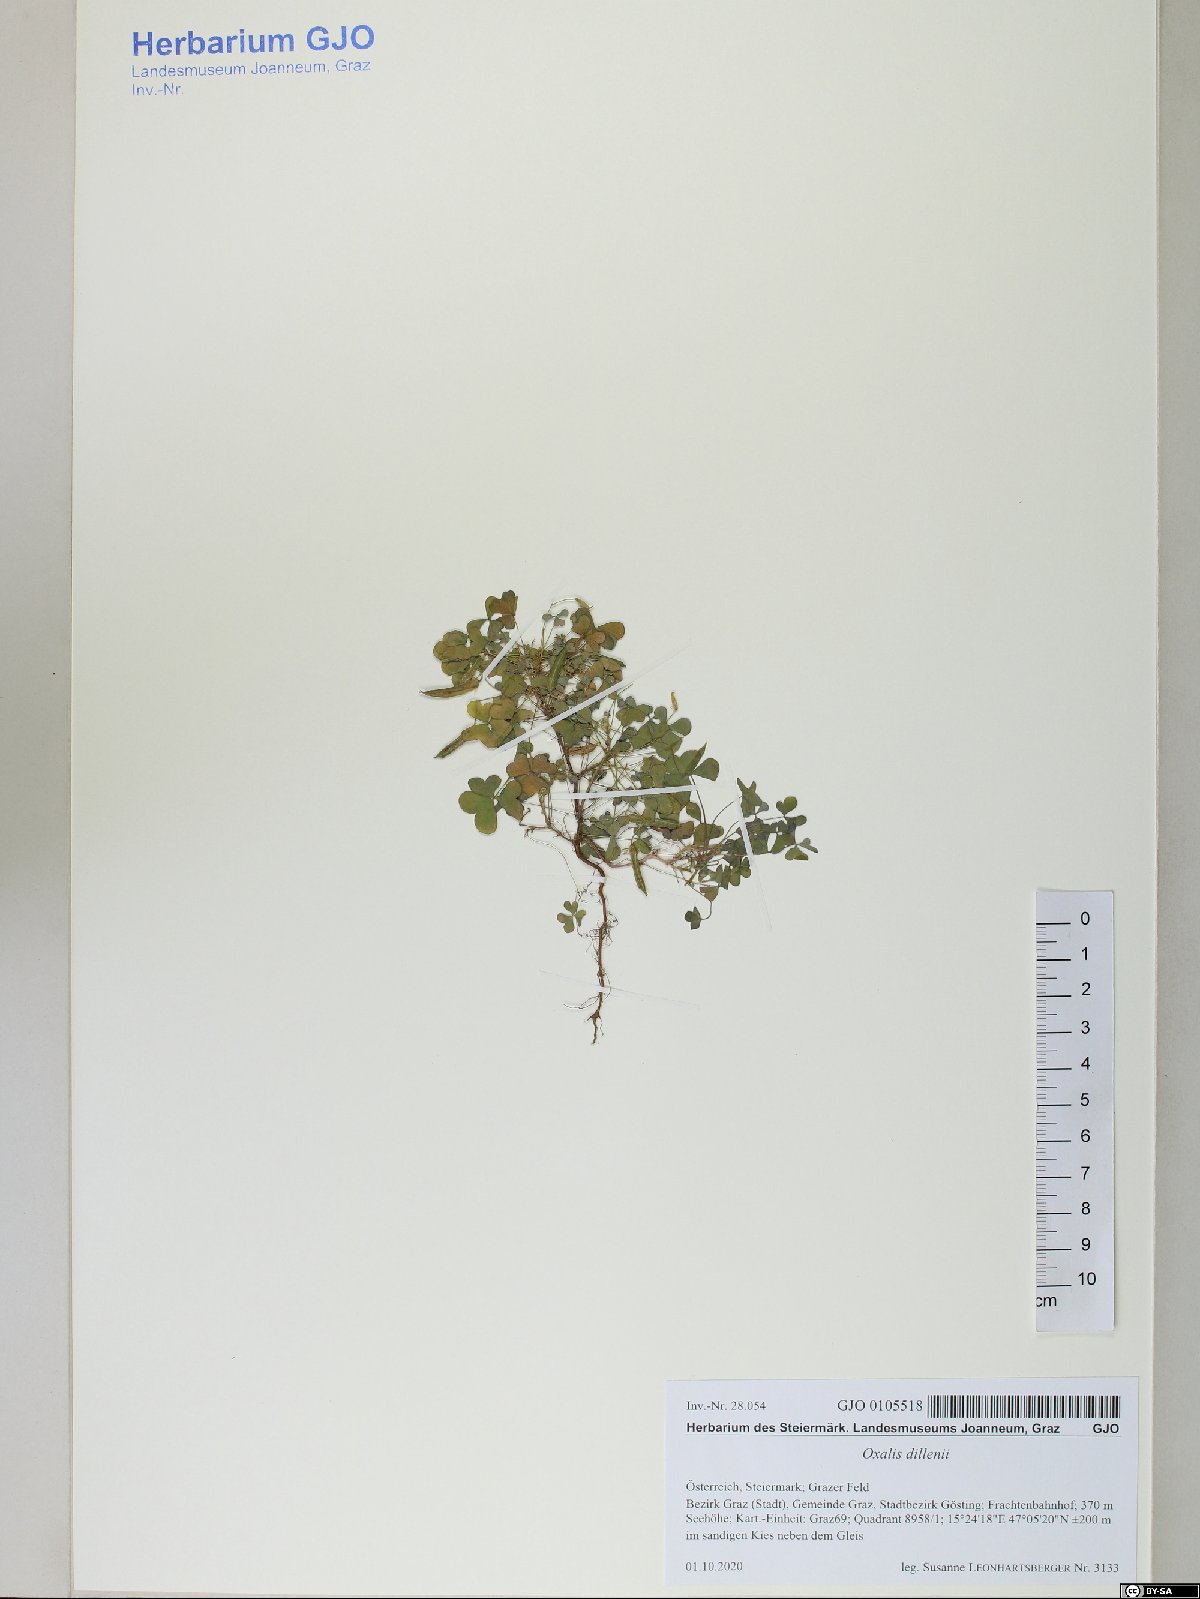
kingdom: Plantae
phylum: Tracheophyta
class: Magnoliopsida
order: Oxalidales
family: Oxalidaceae
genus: Oxalis
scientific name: Oxalis dillenii
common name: Sussex yellow-sorrel
